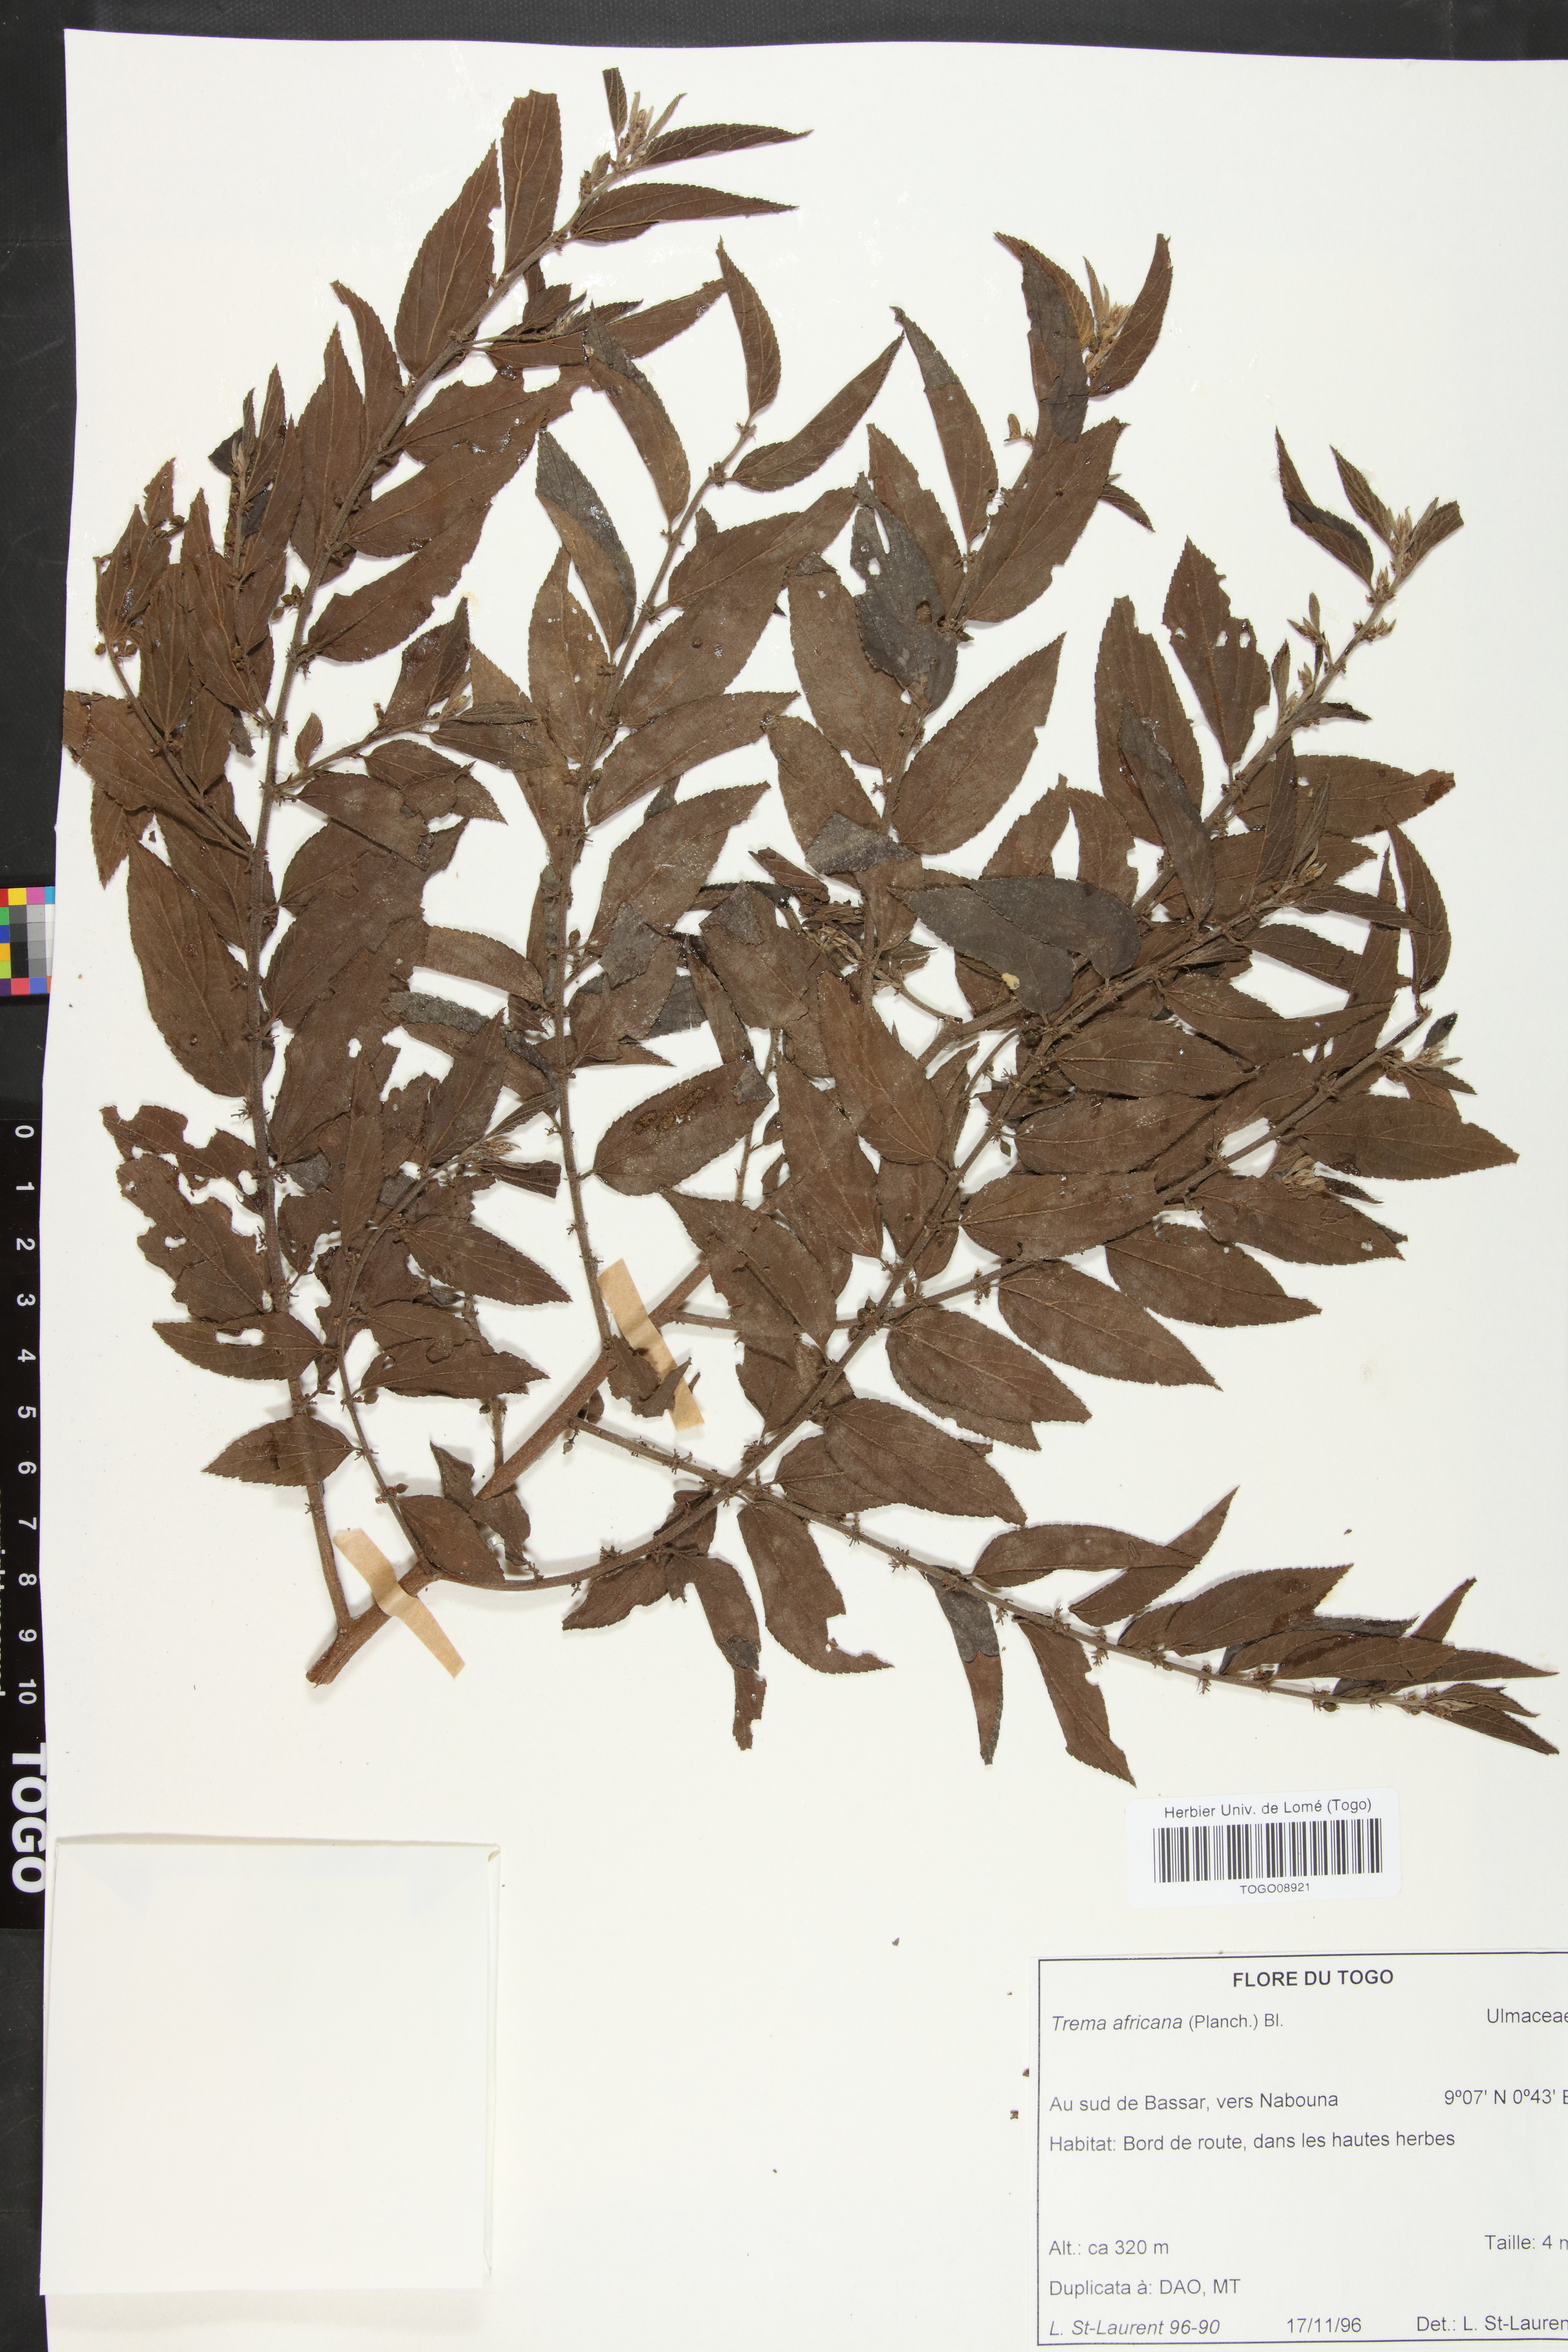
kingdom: Plantae
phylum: Tracheophyta
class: Magnoliopsida
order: Rosales
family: Cannabaceae
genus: Trema
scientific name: Trema orientale
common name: Indian charcoal tree
